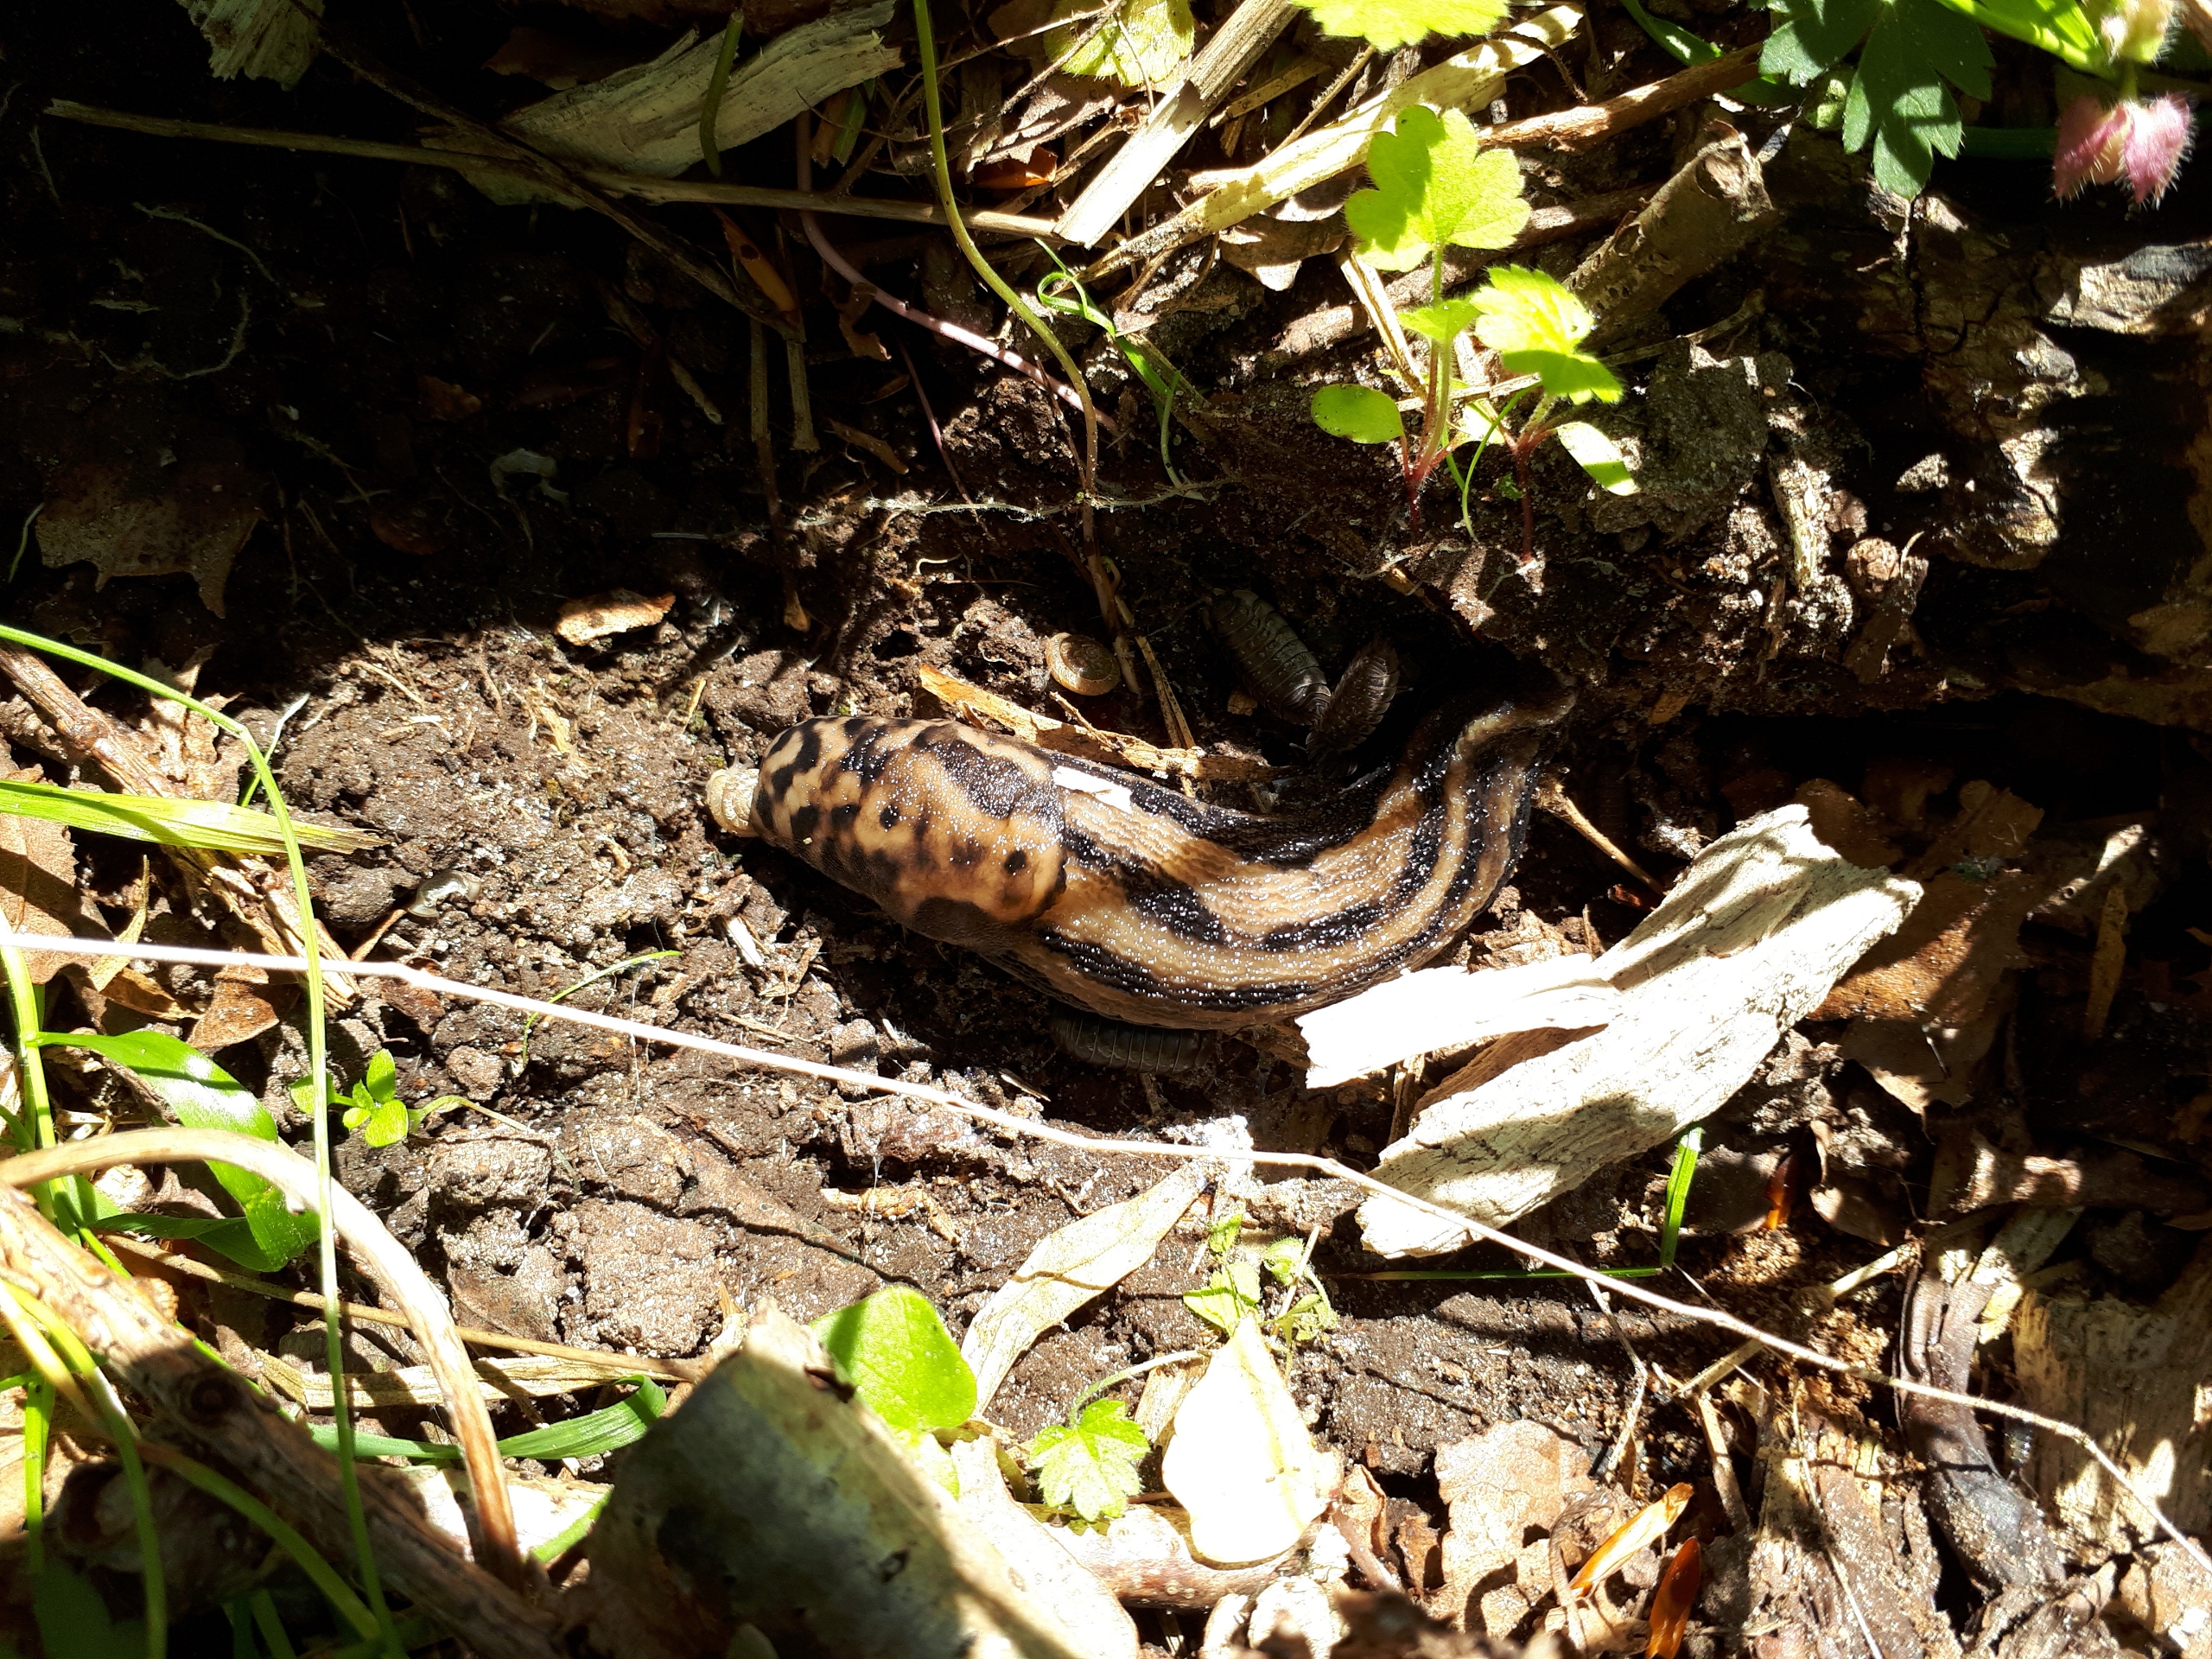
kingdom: Animalia
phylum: Mollusca
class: Gastropoda
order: Stylommatophora
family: Limacidae
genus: Limax
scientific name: Limax maximus
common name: Pantersnegl
